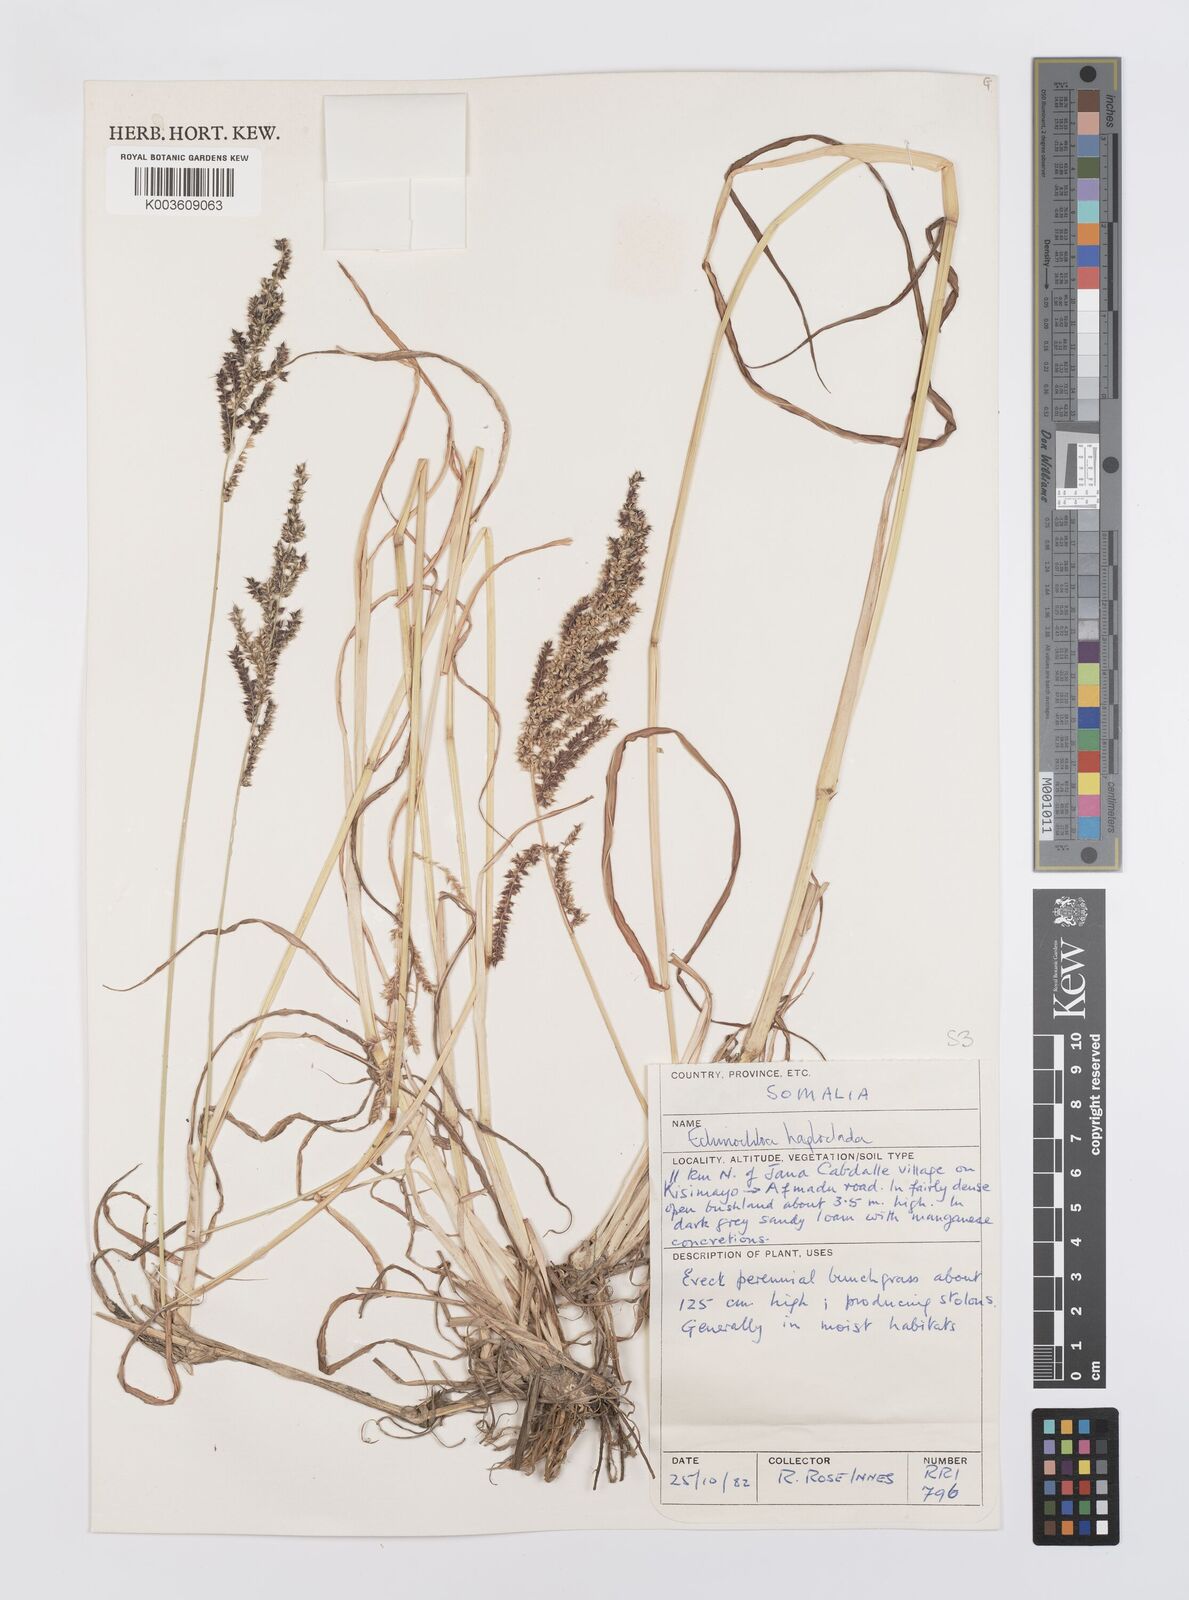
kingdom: Plantae
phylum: Tracheophyta
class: Liliopsida
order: Poales
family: Poaceae
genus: Echinochloa
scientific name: Echinochloa haploclada
